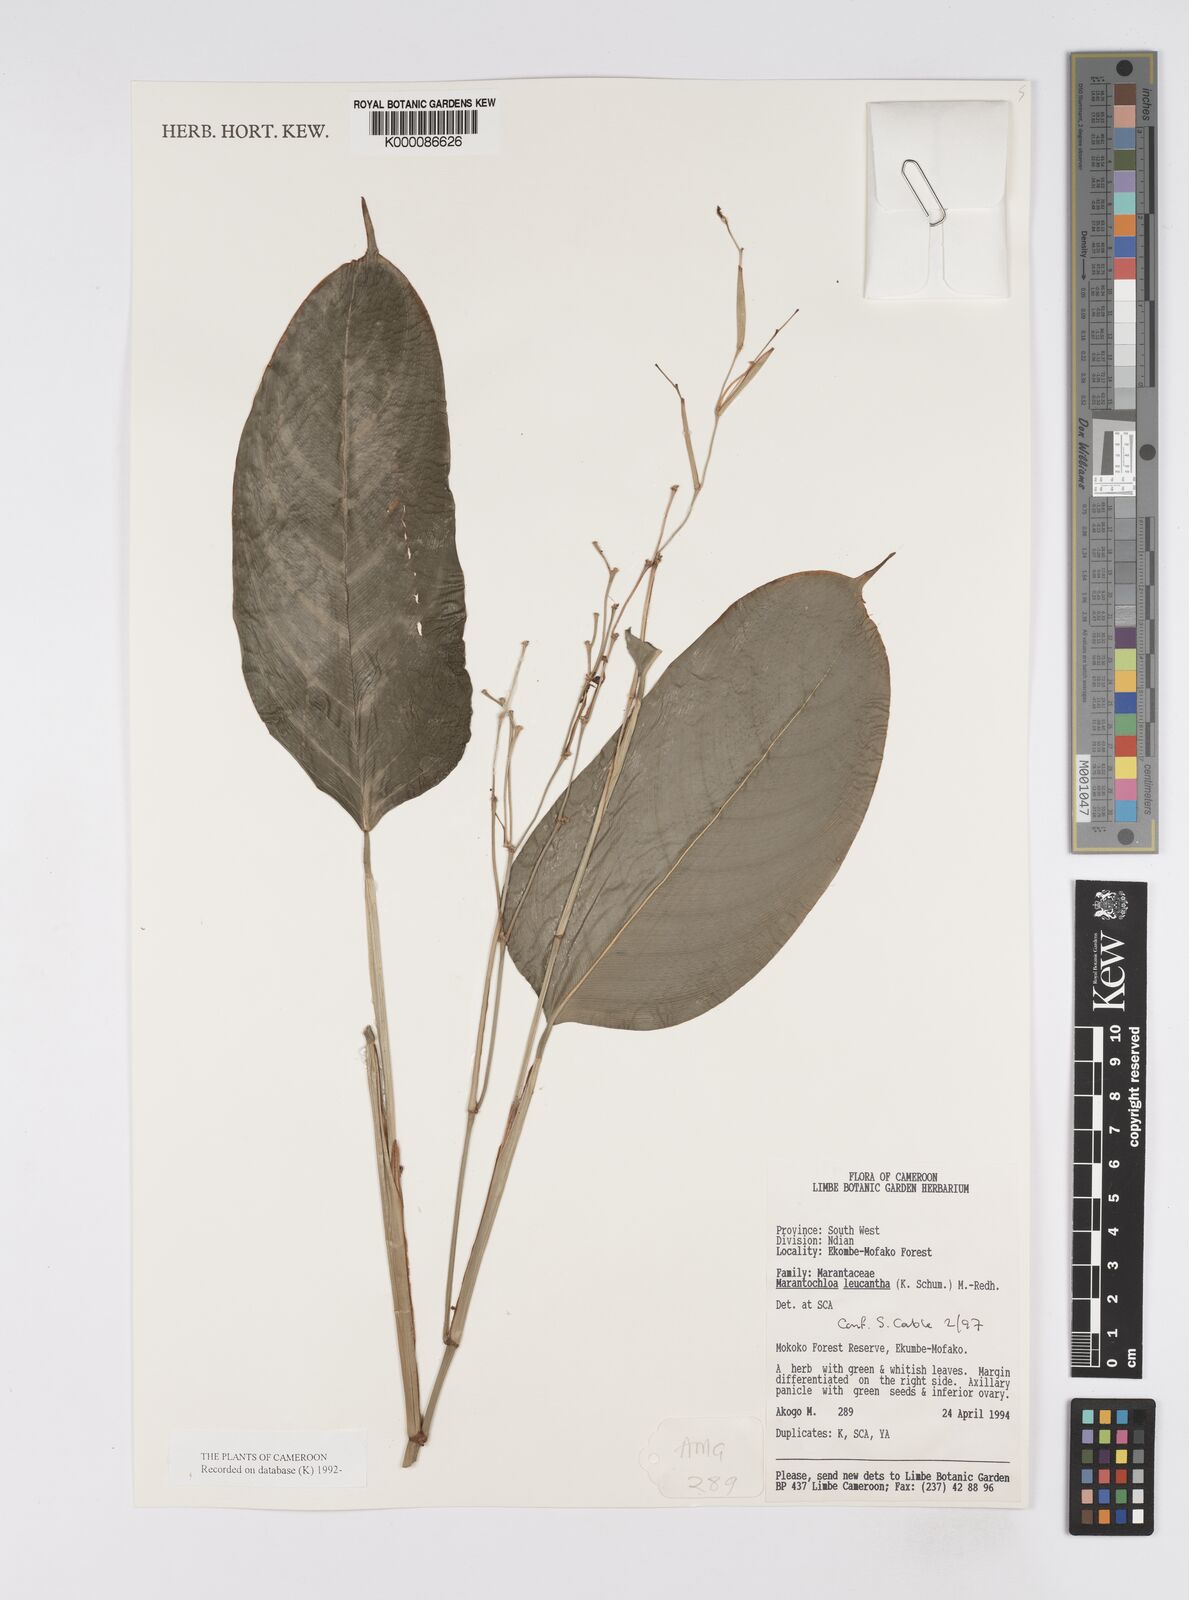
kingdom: Plantae
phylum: Tracheophyta
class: Liliopsida
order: Zingiberales
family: Marantaceae
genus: Marantochloa
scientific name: Marantochloa leucantha
